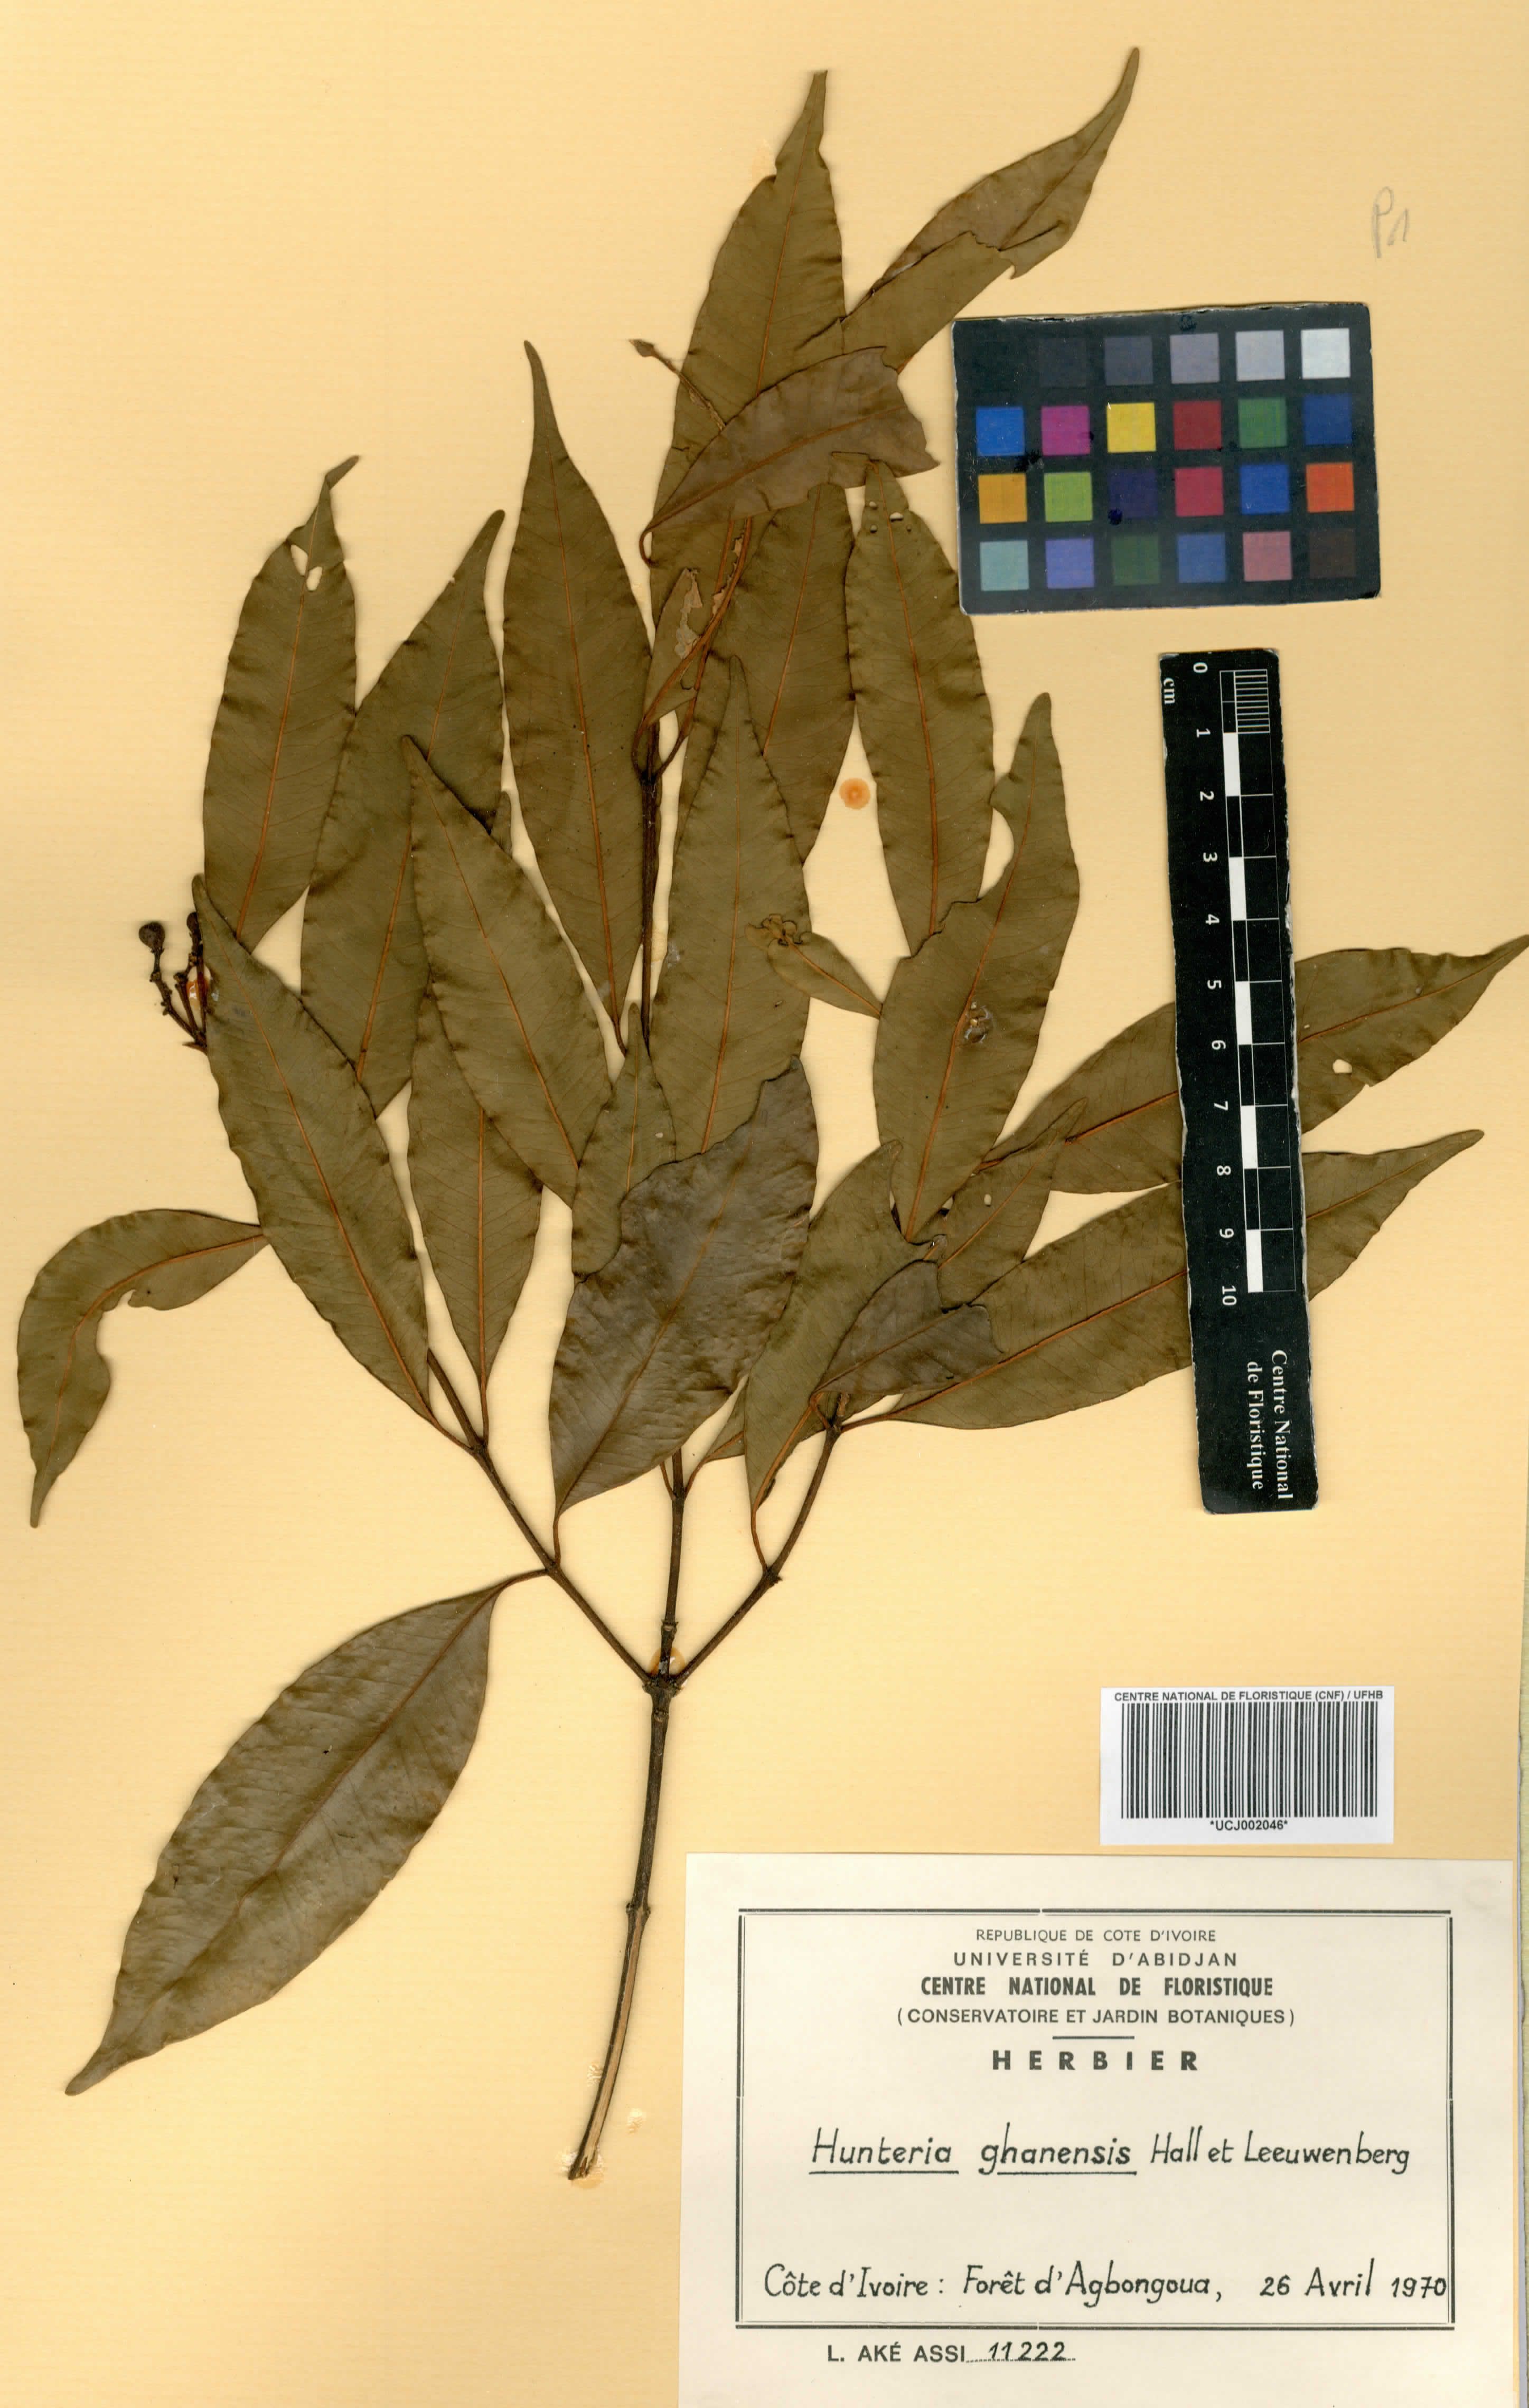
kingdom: Plantae
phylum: Tracheophyta
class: Magnoliopsida
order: Gentianales
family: Apocynaceae
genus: Hunteria
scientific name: Hunteria ghanensis
